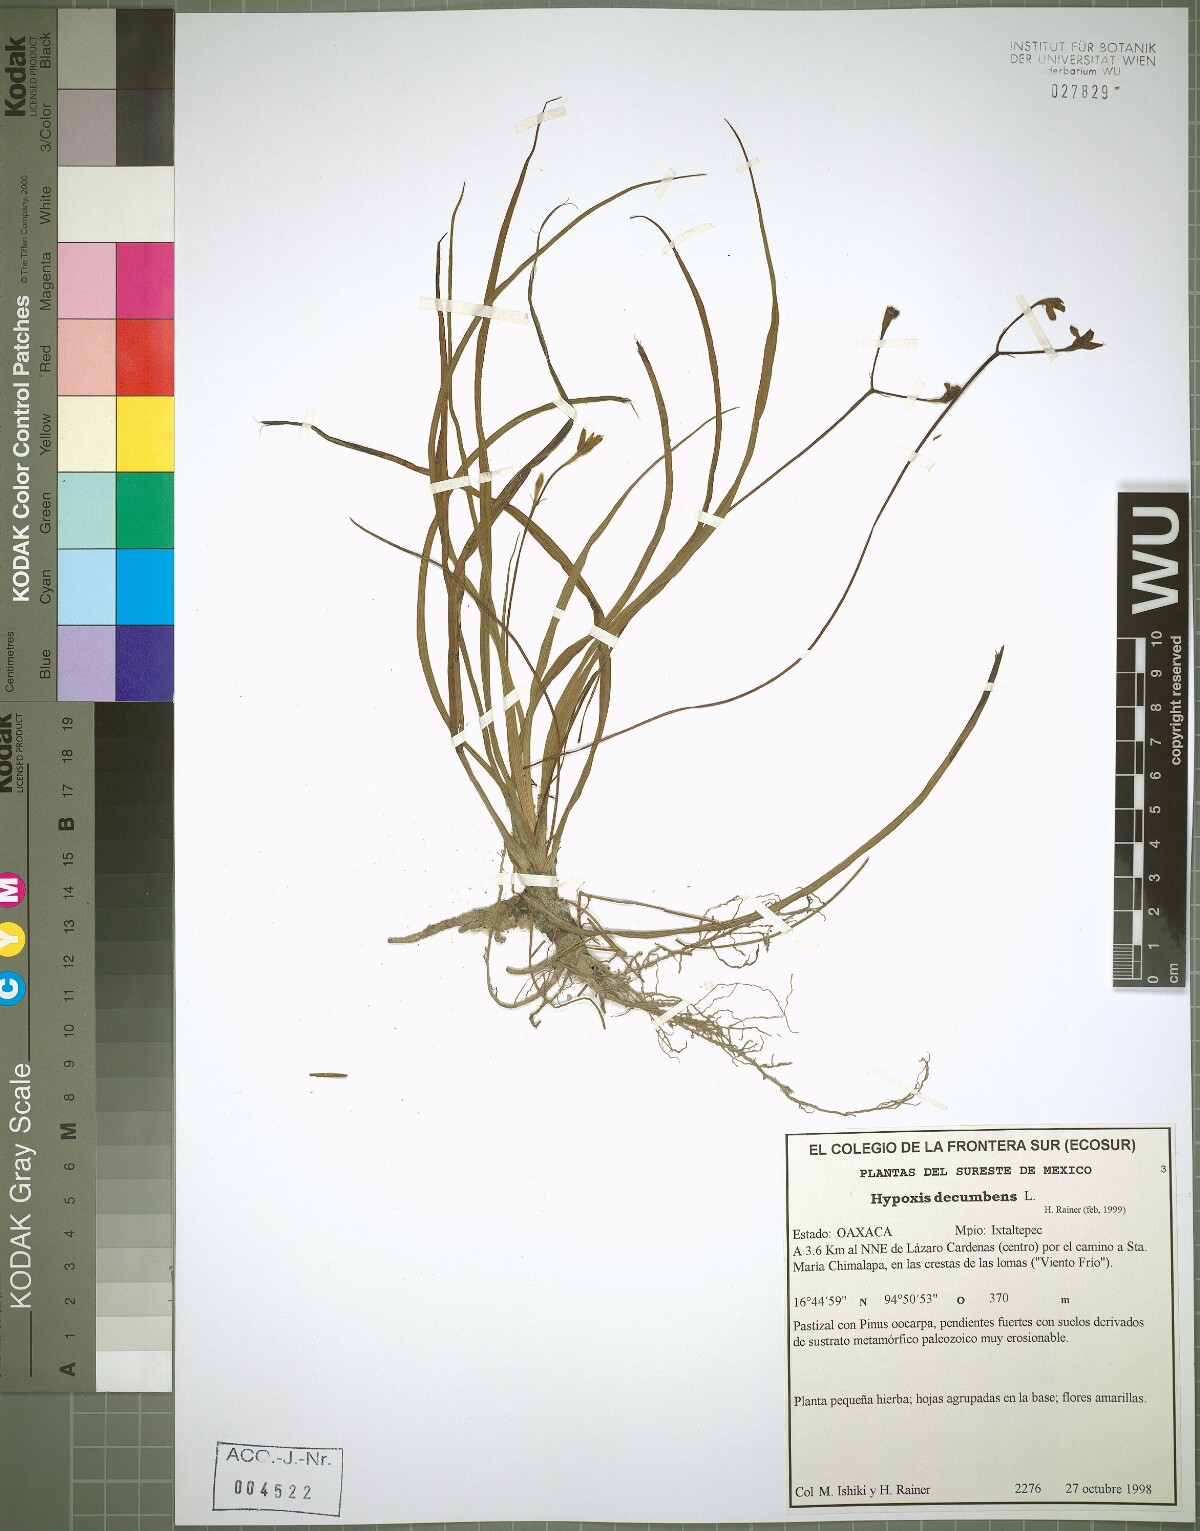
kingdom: Plantae
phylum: Tracheophyta
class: Liliopsida
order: Asparagales
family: Hypoxidaceae
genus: Hypoxis
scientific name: Hypoxis decumbens
